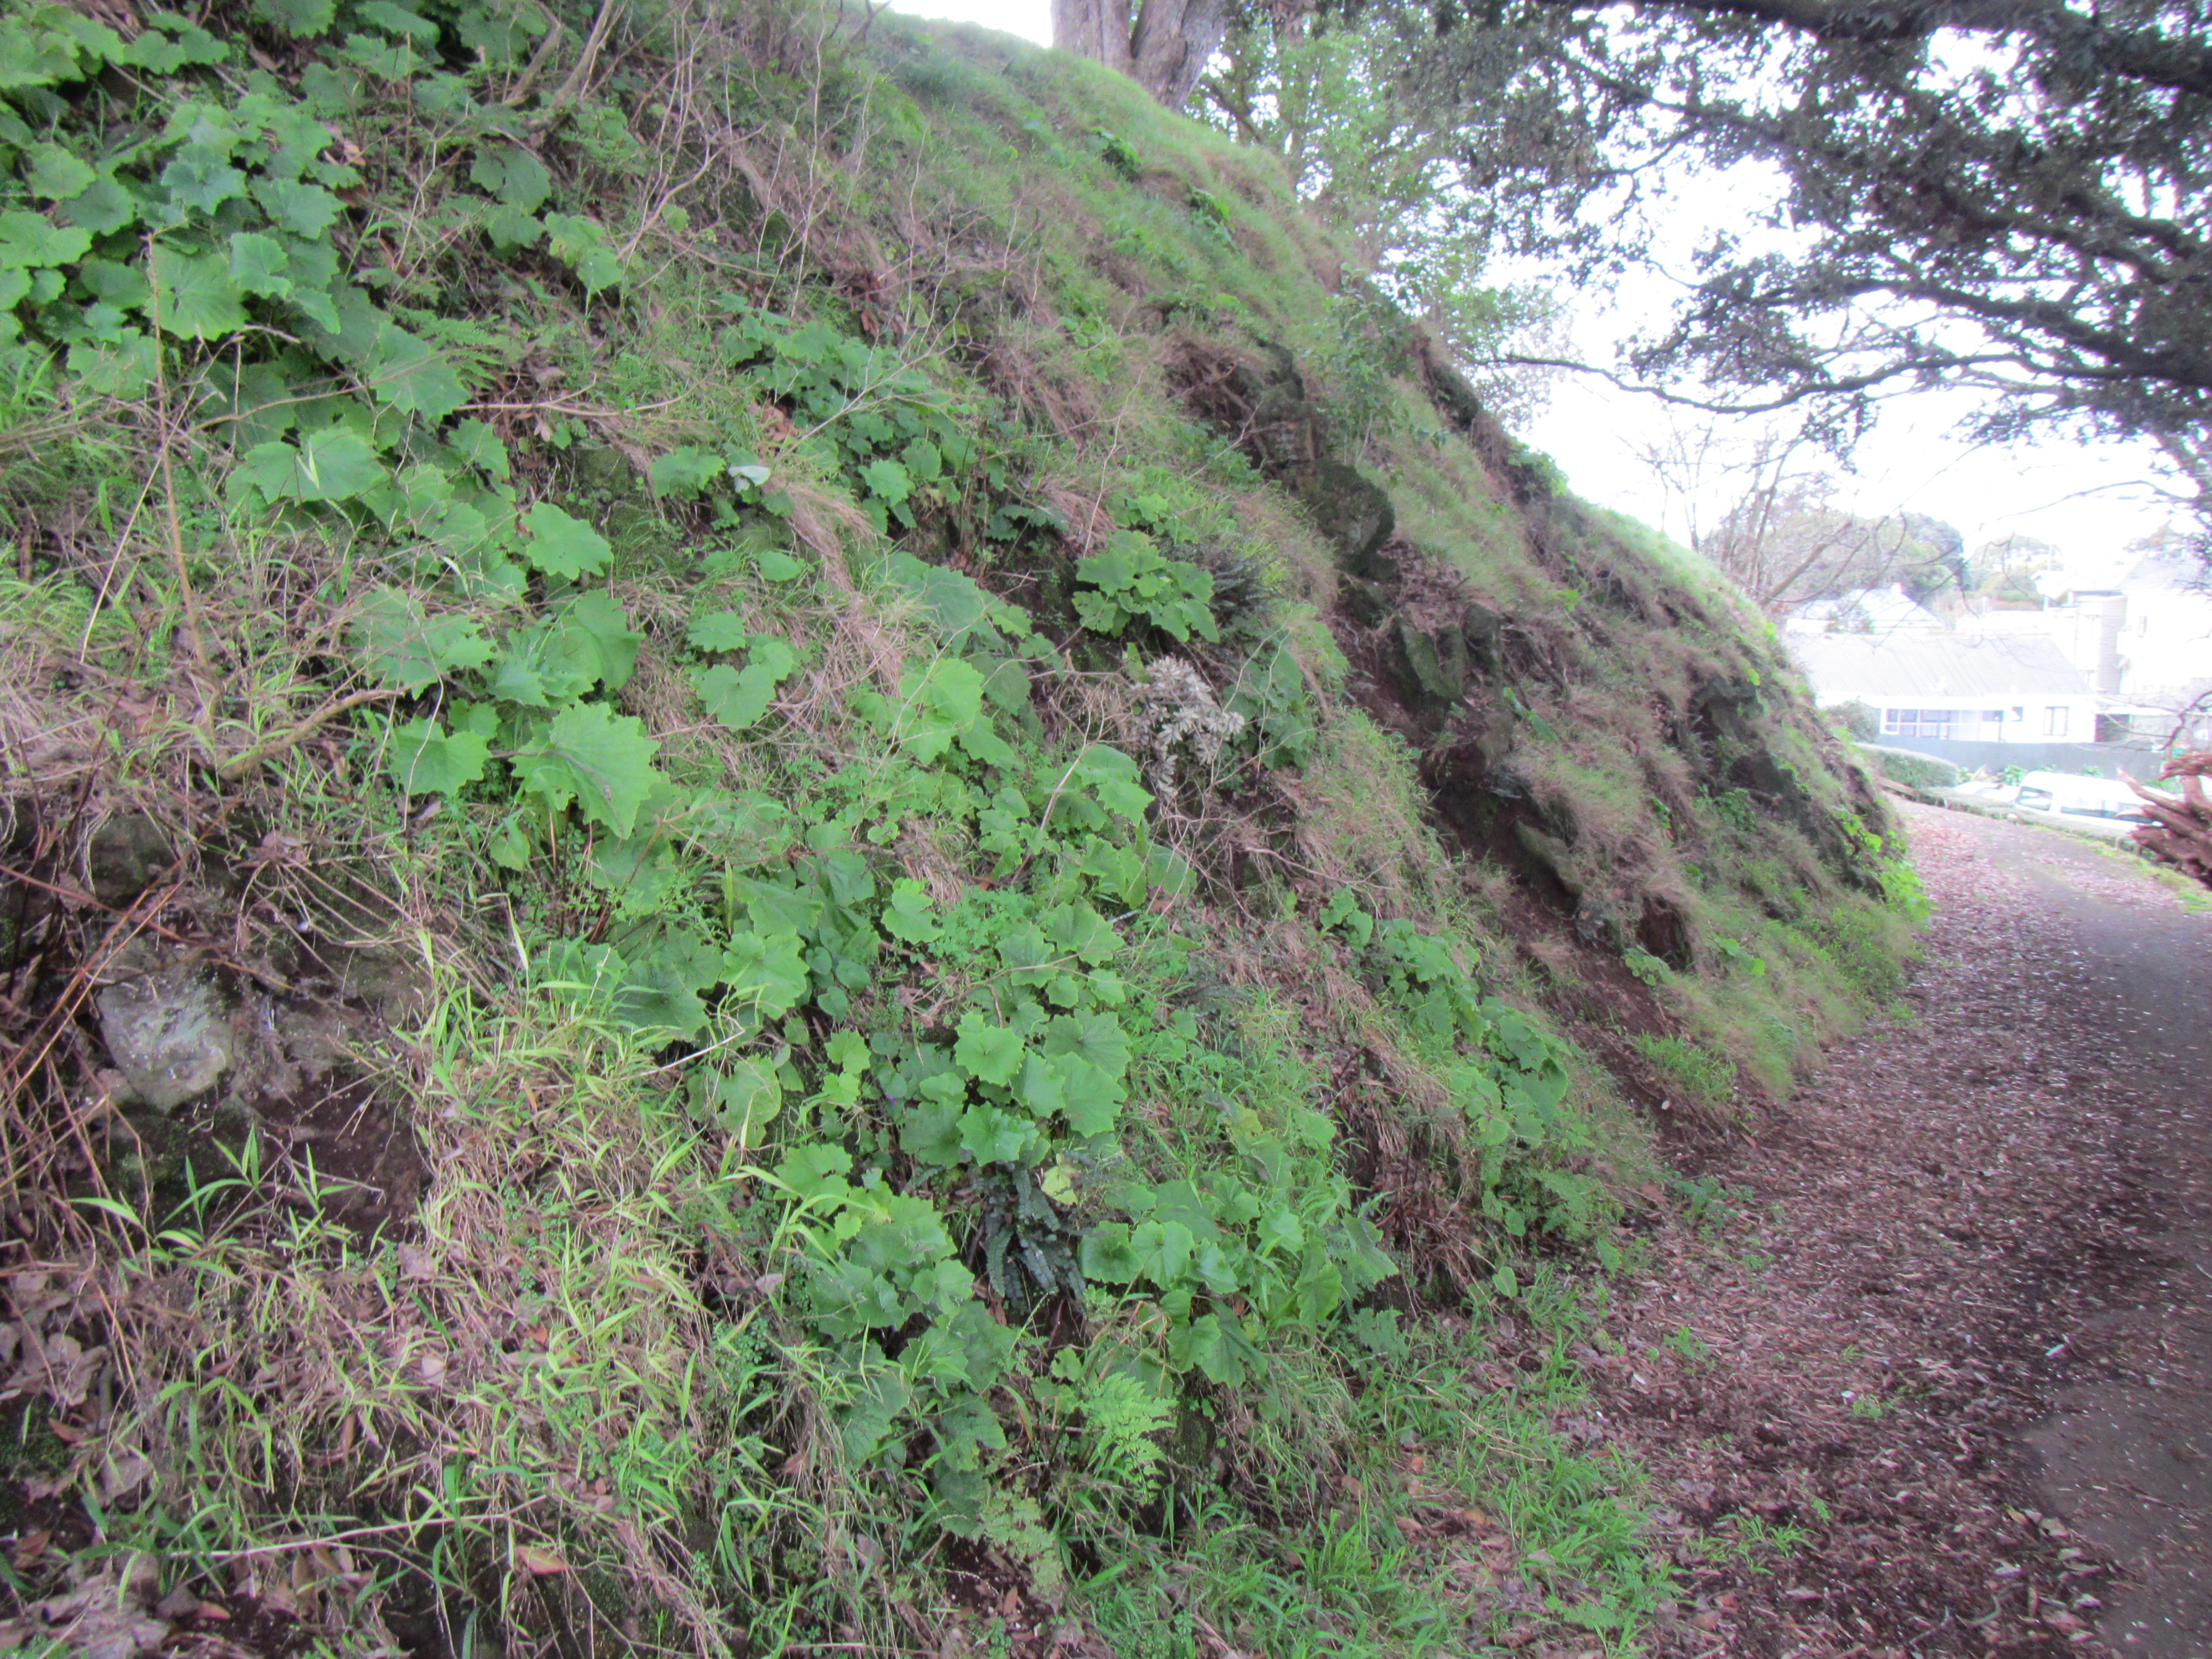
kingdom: Plantae
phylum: Tracheophyta
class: Polypodiopsida
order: Polypodiales
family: Pteridaceae
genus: Pellaea
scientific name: Pellaea falcata
